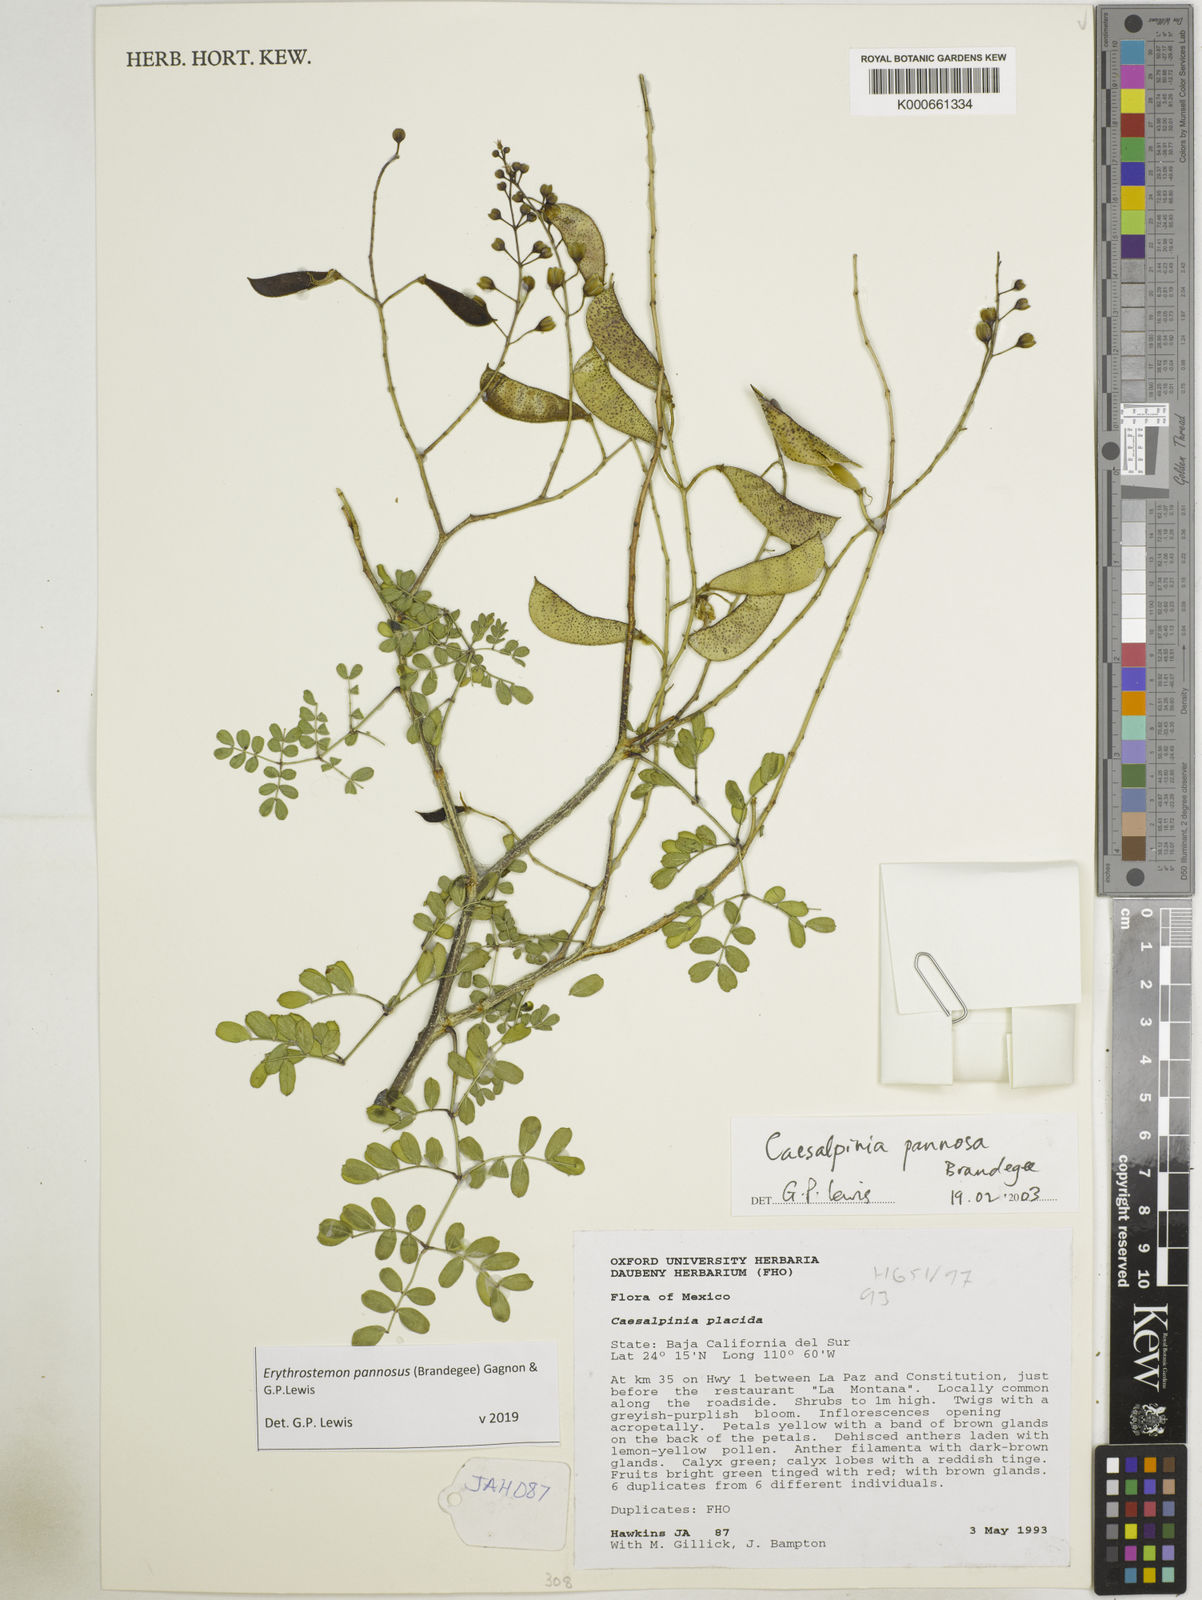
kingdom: Plantae
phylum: Tracheophyta
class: Magnoliopsida
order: Fabales
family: Fabaceae
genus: Erythrostemon
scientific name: Erythrostemon pannosus
